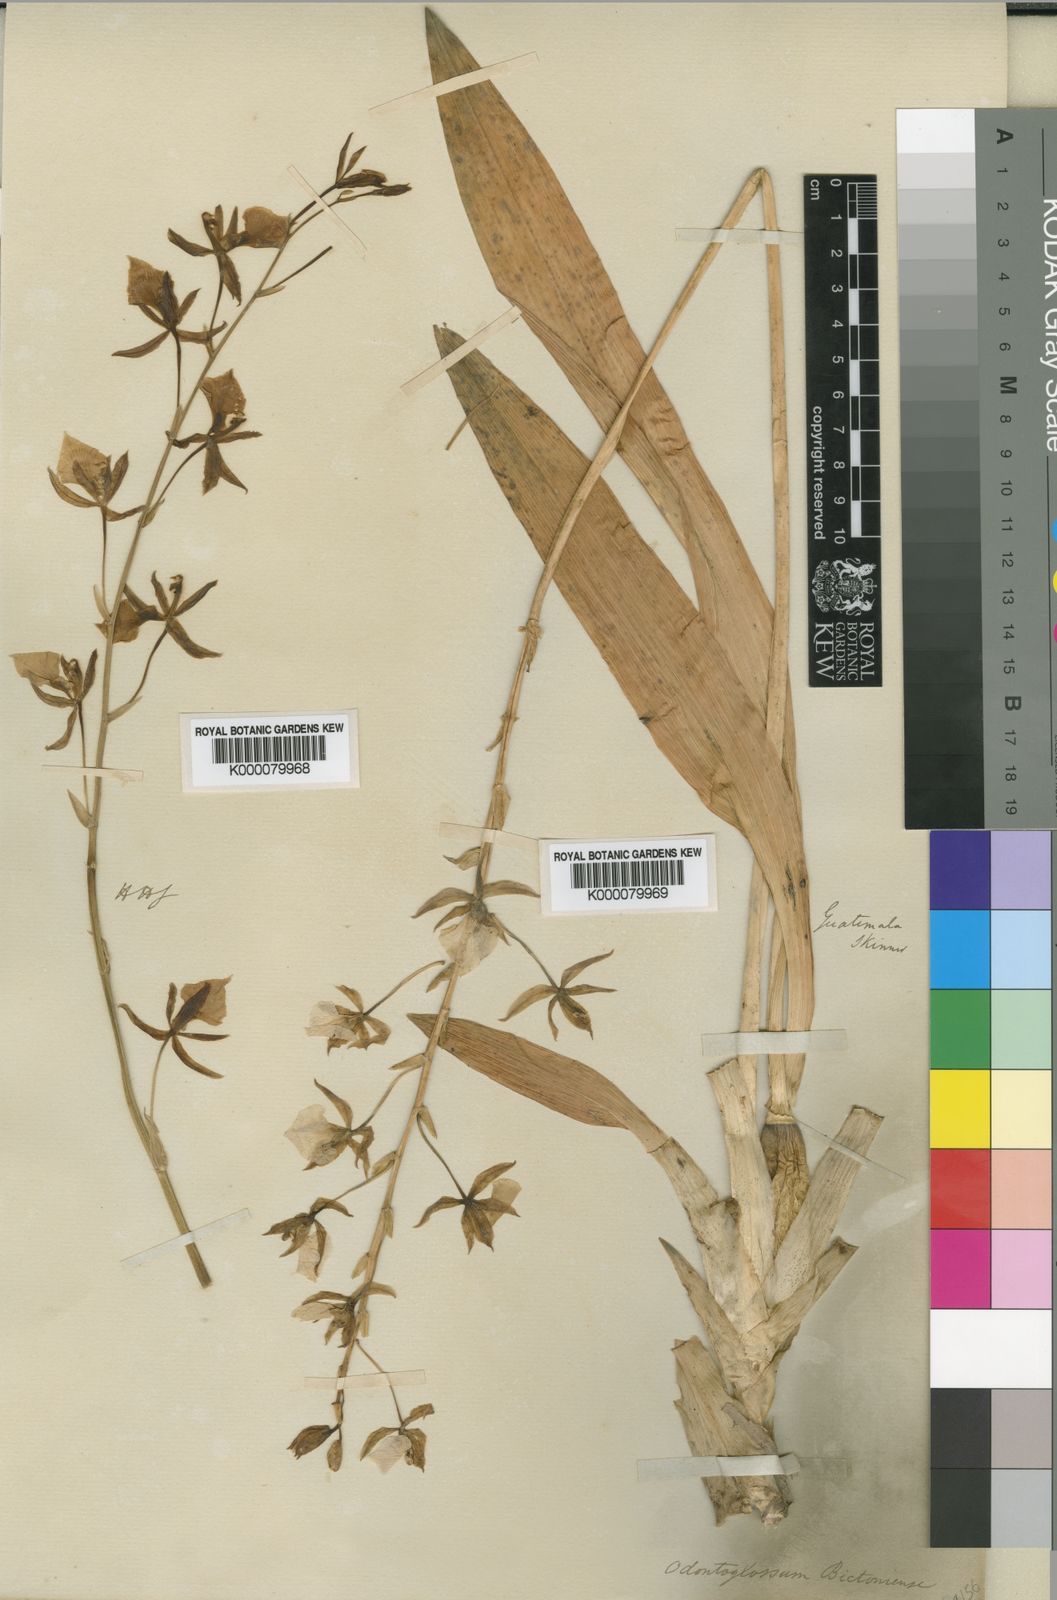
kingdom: Plantae
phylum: Tracheophyta
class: Liliopsida
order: Asparagales
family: Orchidaceae
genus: Rhynchostele
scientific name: Rhynchostele bictoniensis
